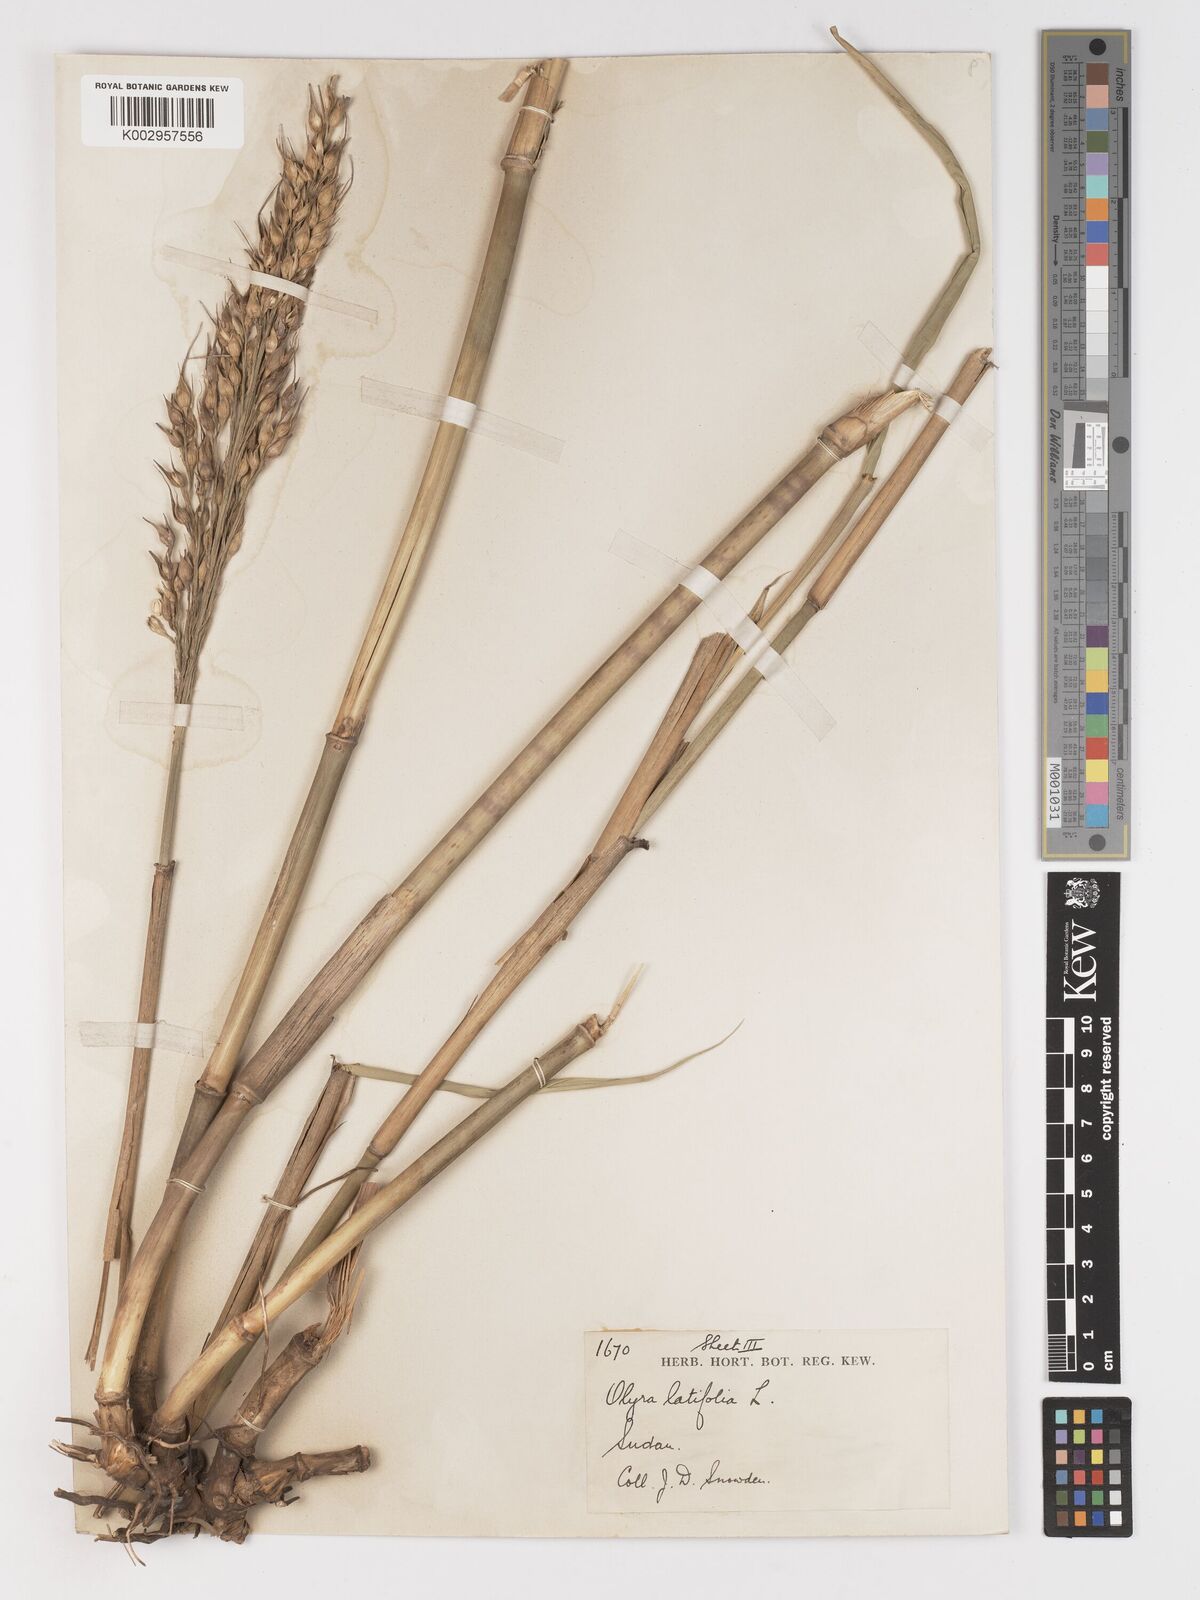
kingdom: Plantae
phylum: Tracheophyta
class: Liliopsida
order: Poales
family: Poaceae
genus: Olyra
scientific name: Olyra latifolia
